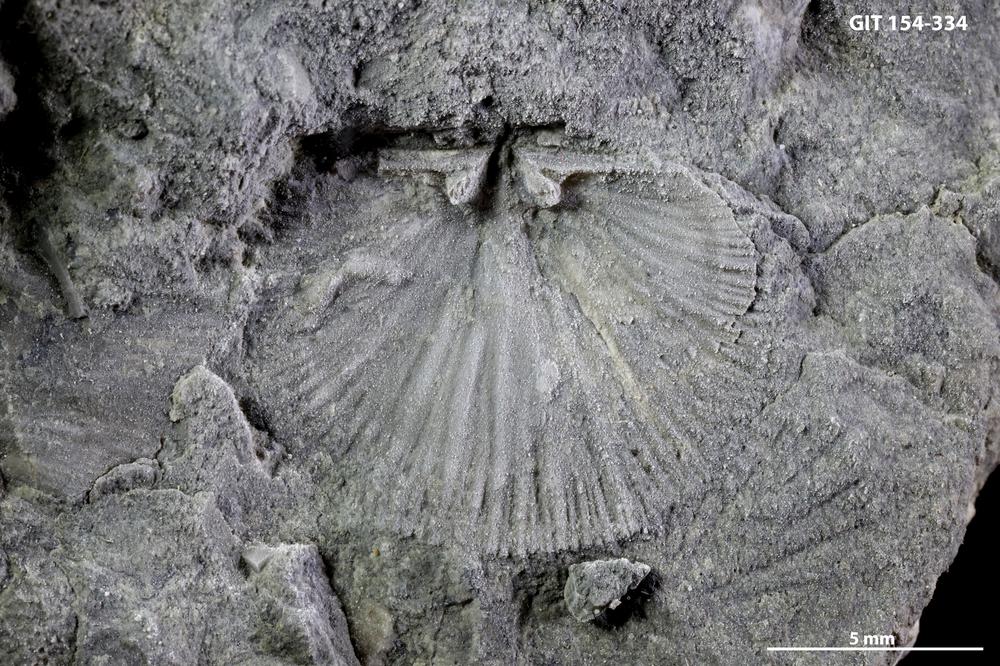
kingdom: Animalia
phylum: Brachiopoda
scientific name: Brachiopoda
